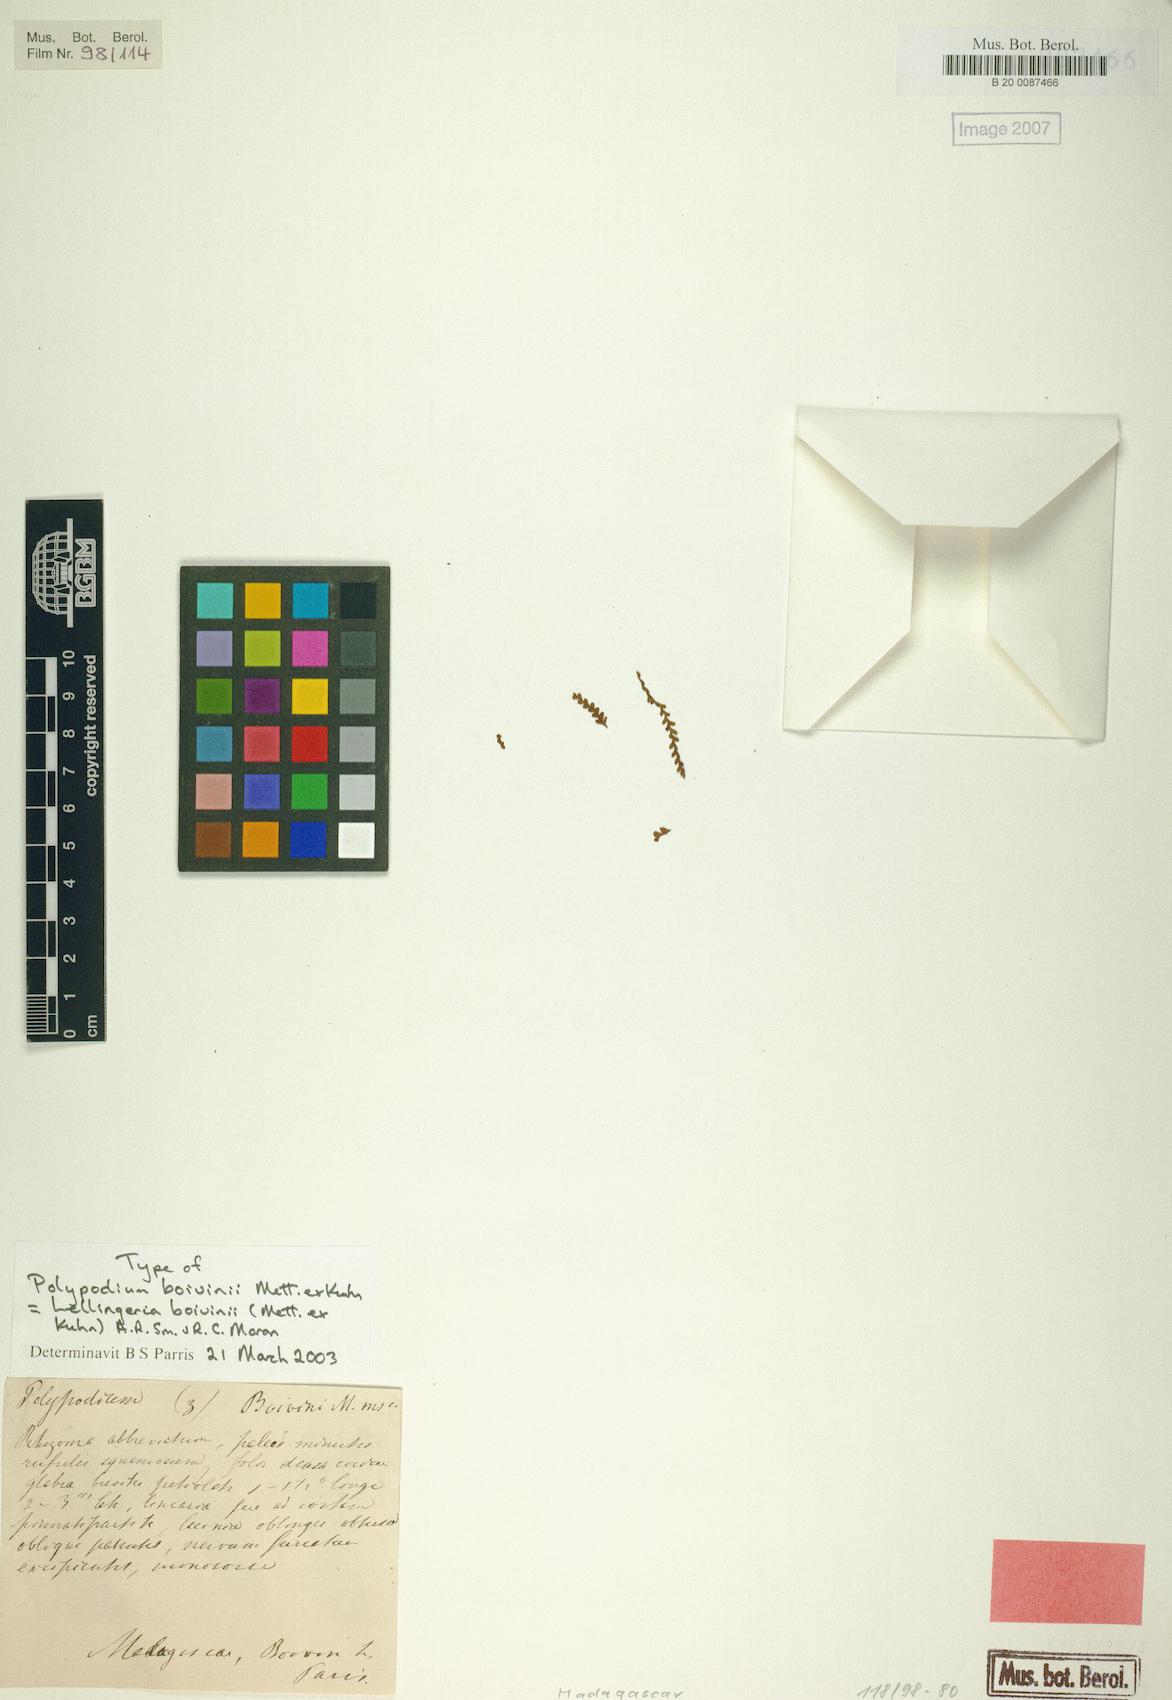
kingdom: Plantae
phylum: Tracheophyta
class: Polypodiopsida
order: Polypodiales
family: Polypodiaceae
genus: Ctenopterella
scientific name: Ctenopterella boivinii
